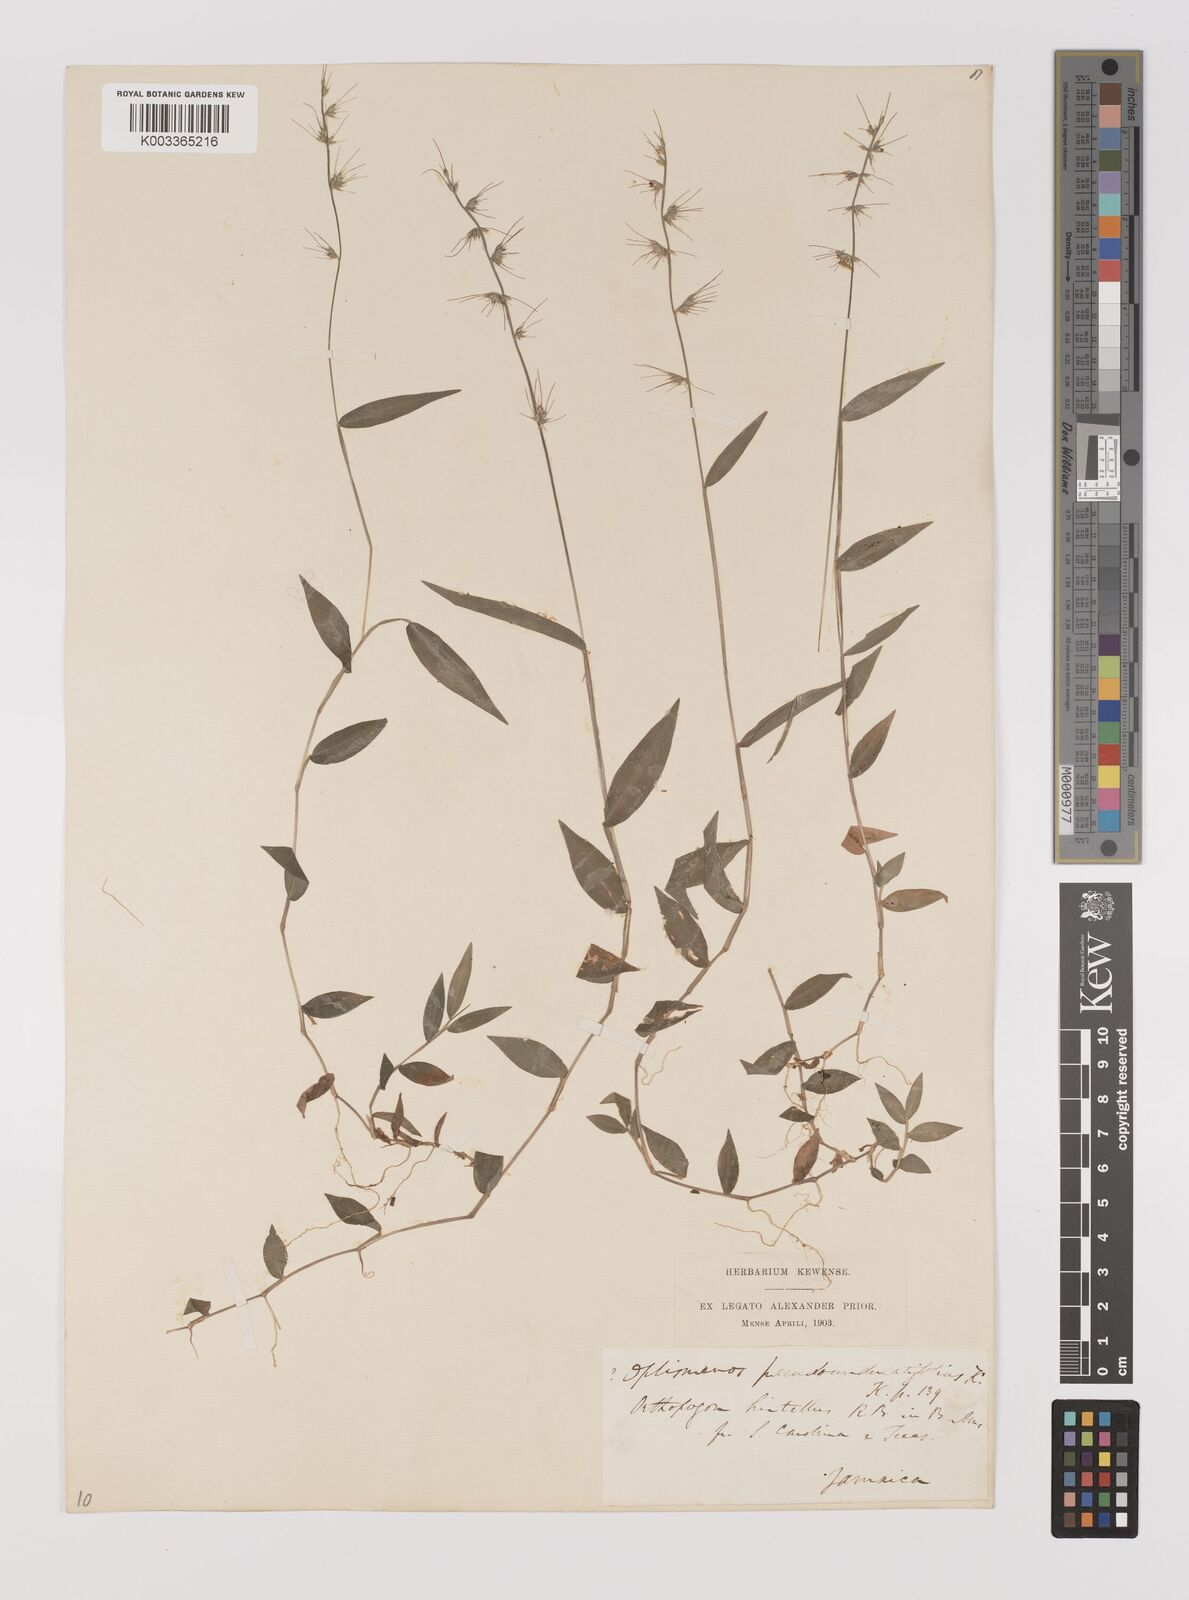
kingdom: Plantae
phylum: Tracheophyta
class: Liliopsida
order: Poales
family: Poaceae
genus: Oplismenus
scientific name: Oplismenus hirtellus
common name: Basketgrass
